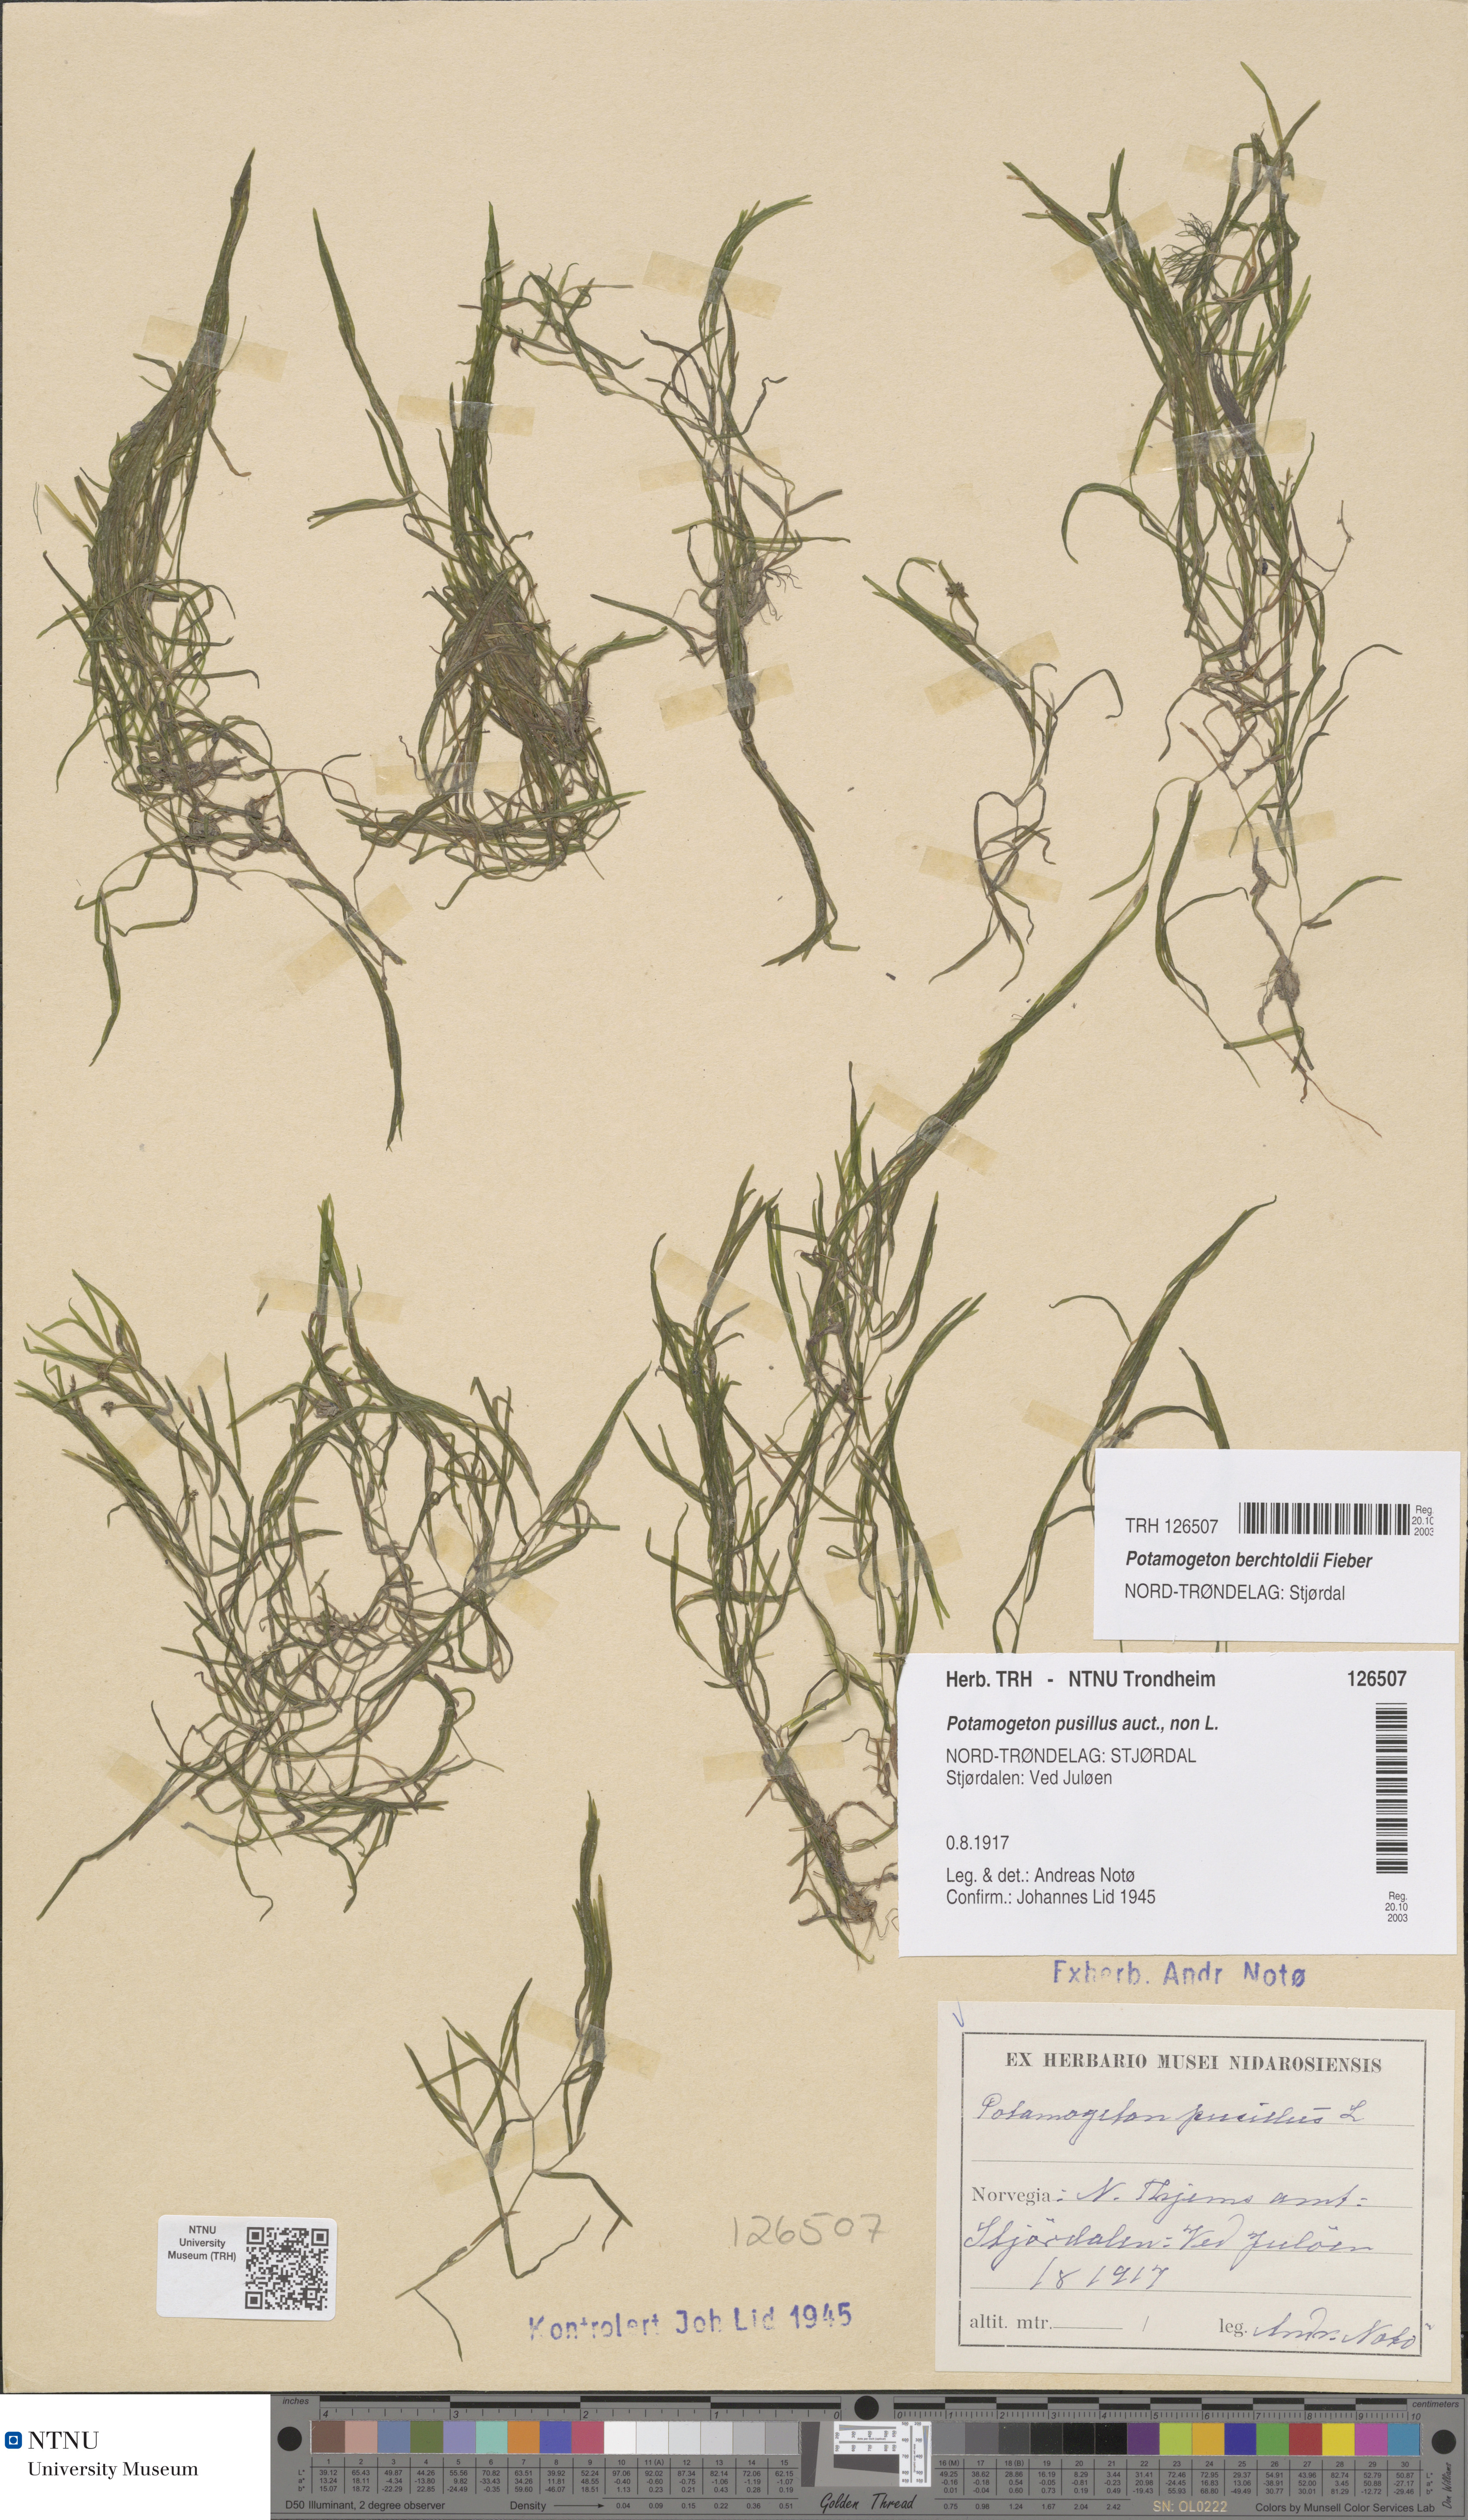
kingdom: Plantae
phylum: Tracheophyta
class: Liliopsida
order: Alismatales
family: Potamogetonaceae
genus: Potamogeton
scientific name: Potamogeton berchtoldii
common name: Small pondweed
